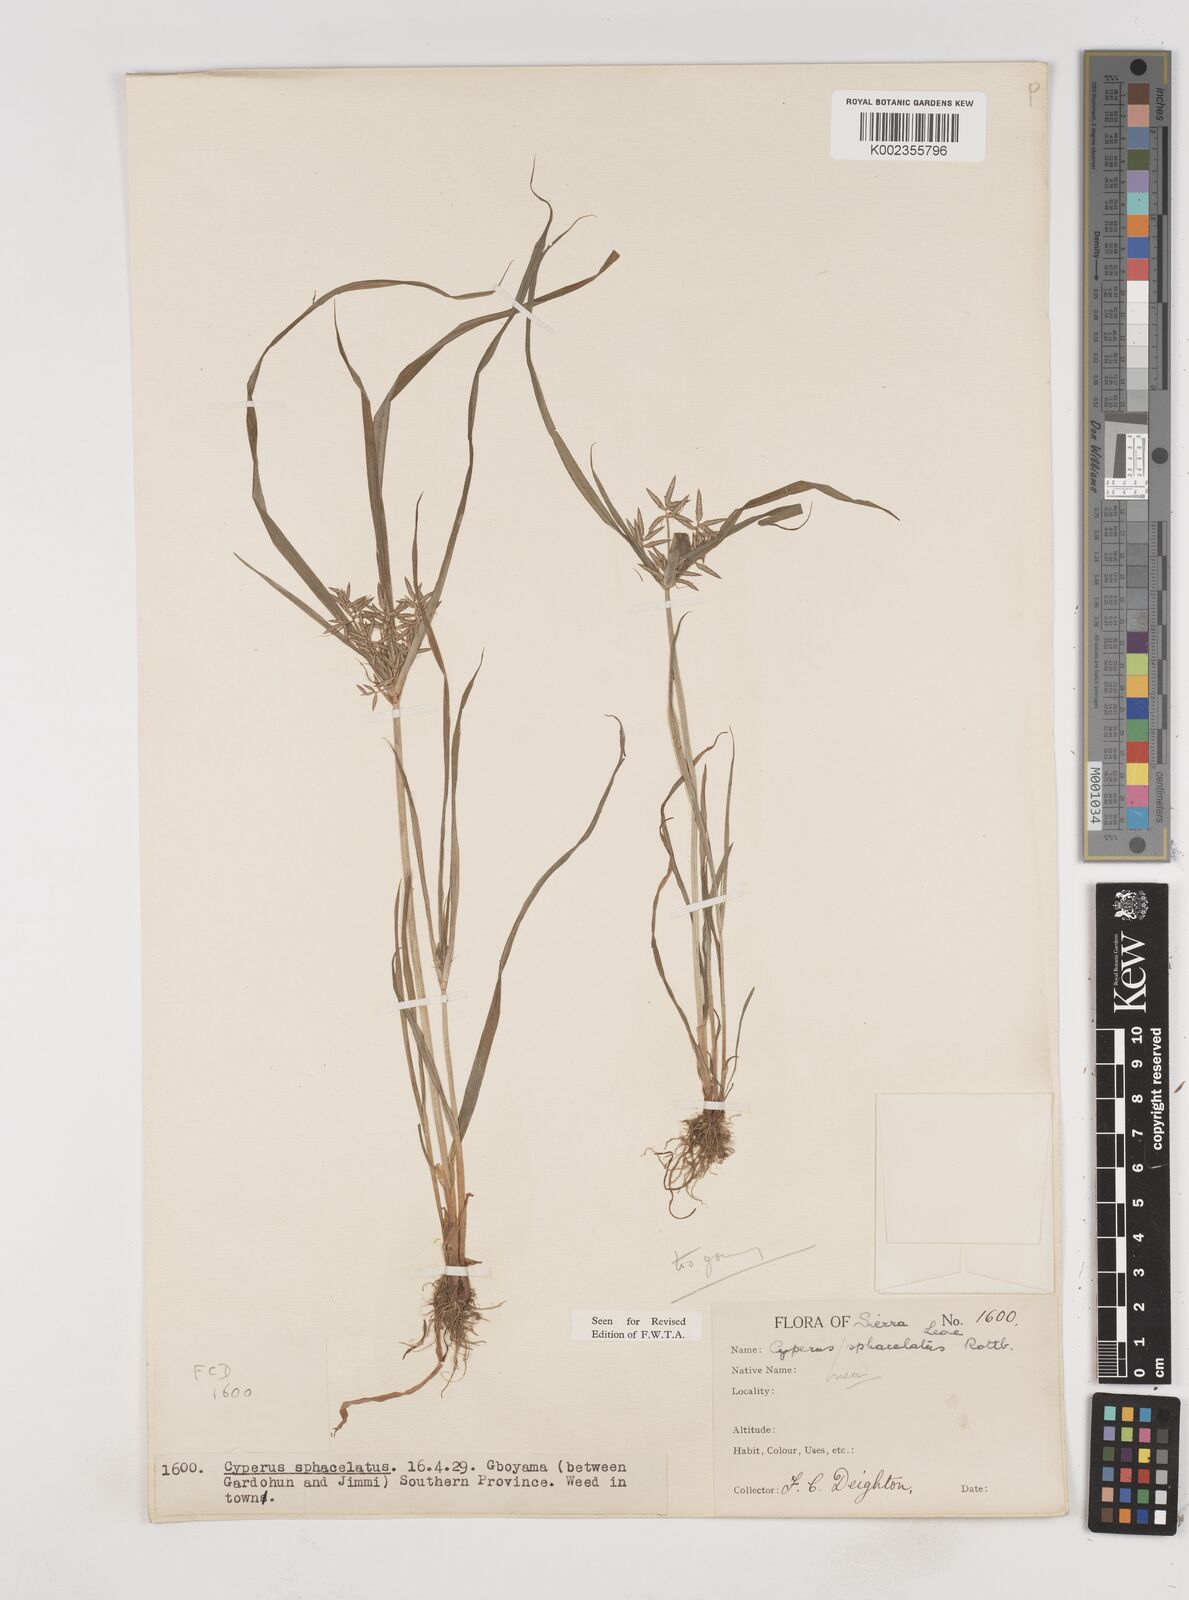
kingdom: Plantae
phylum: Tracheophyta
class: Liliopsida
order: Poales
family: Cyperaceae
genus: Cyperus
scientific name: Cyperus sphacelatus
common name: Roadside flatsedge
